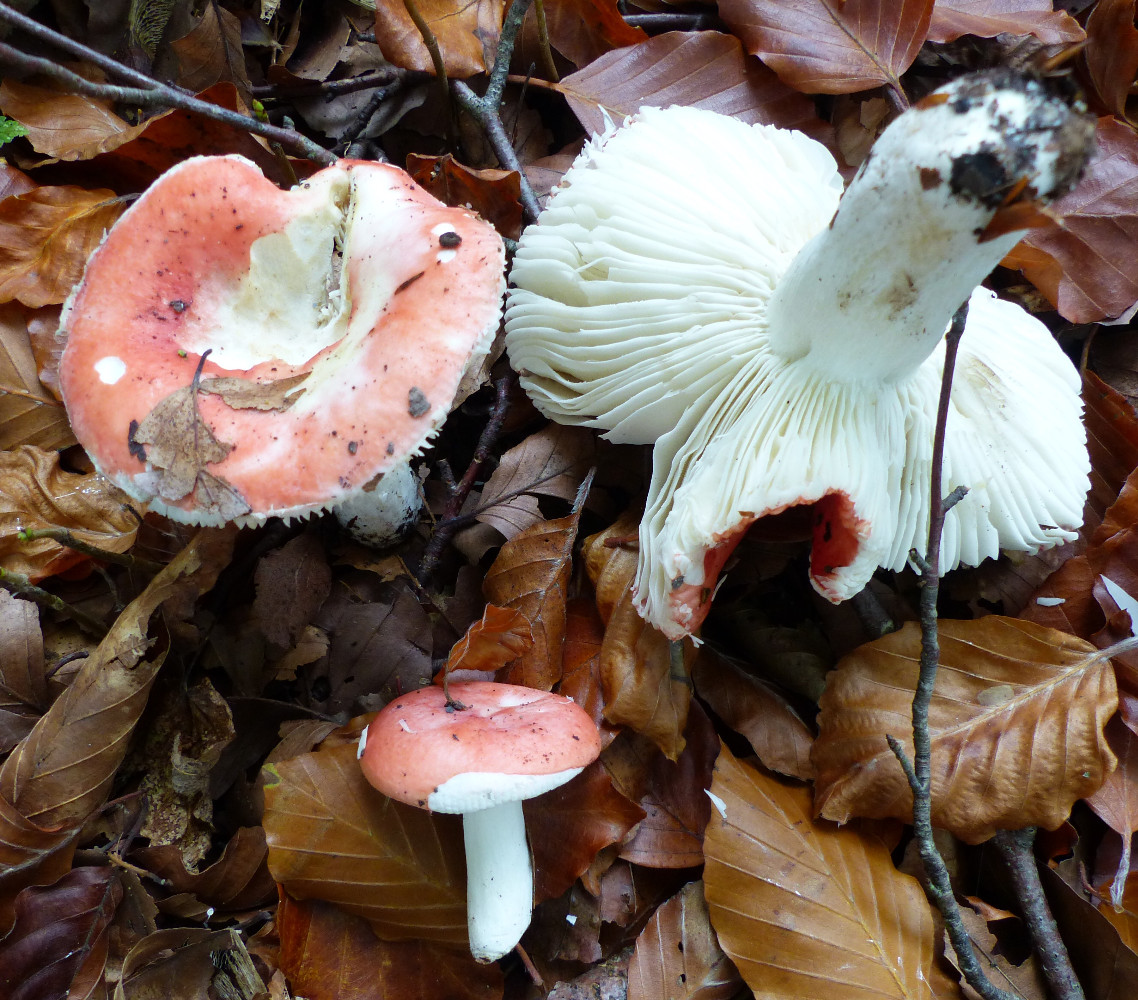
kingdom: Fungi
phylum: Basidiomycota
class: Agaricomycetes
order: Russulales
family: Russulaceae
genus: Russula
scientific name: Russula nobilis
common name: lille gift-skørhat
